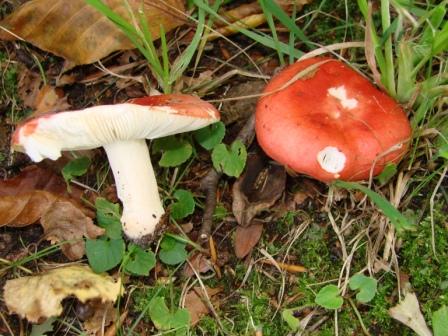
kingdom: Fungi
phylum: Basidiomycota
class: Agaricomycetes
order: Russulales
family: Russulaceae
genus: Russula
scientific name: Russula
